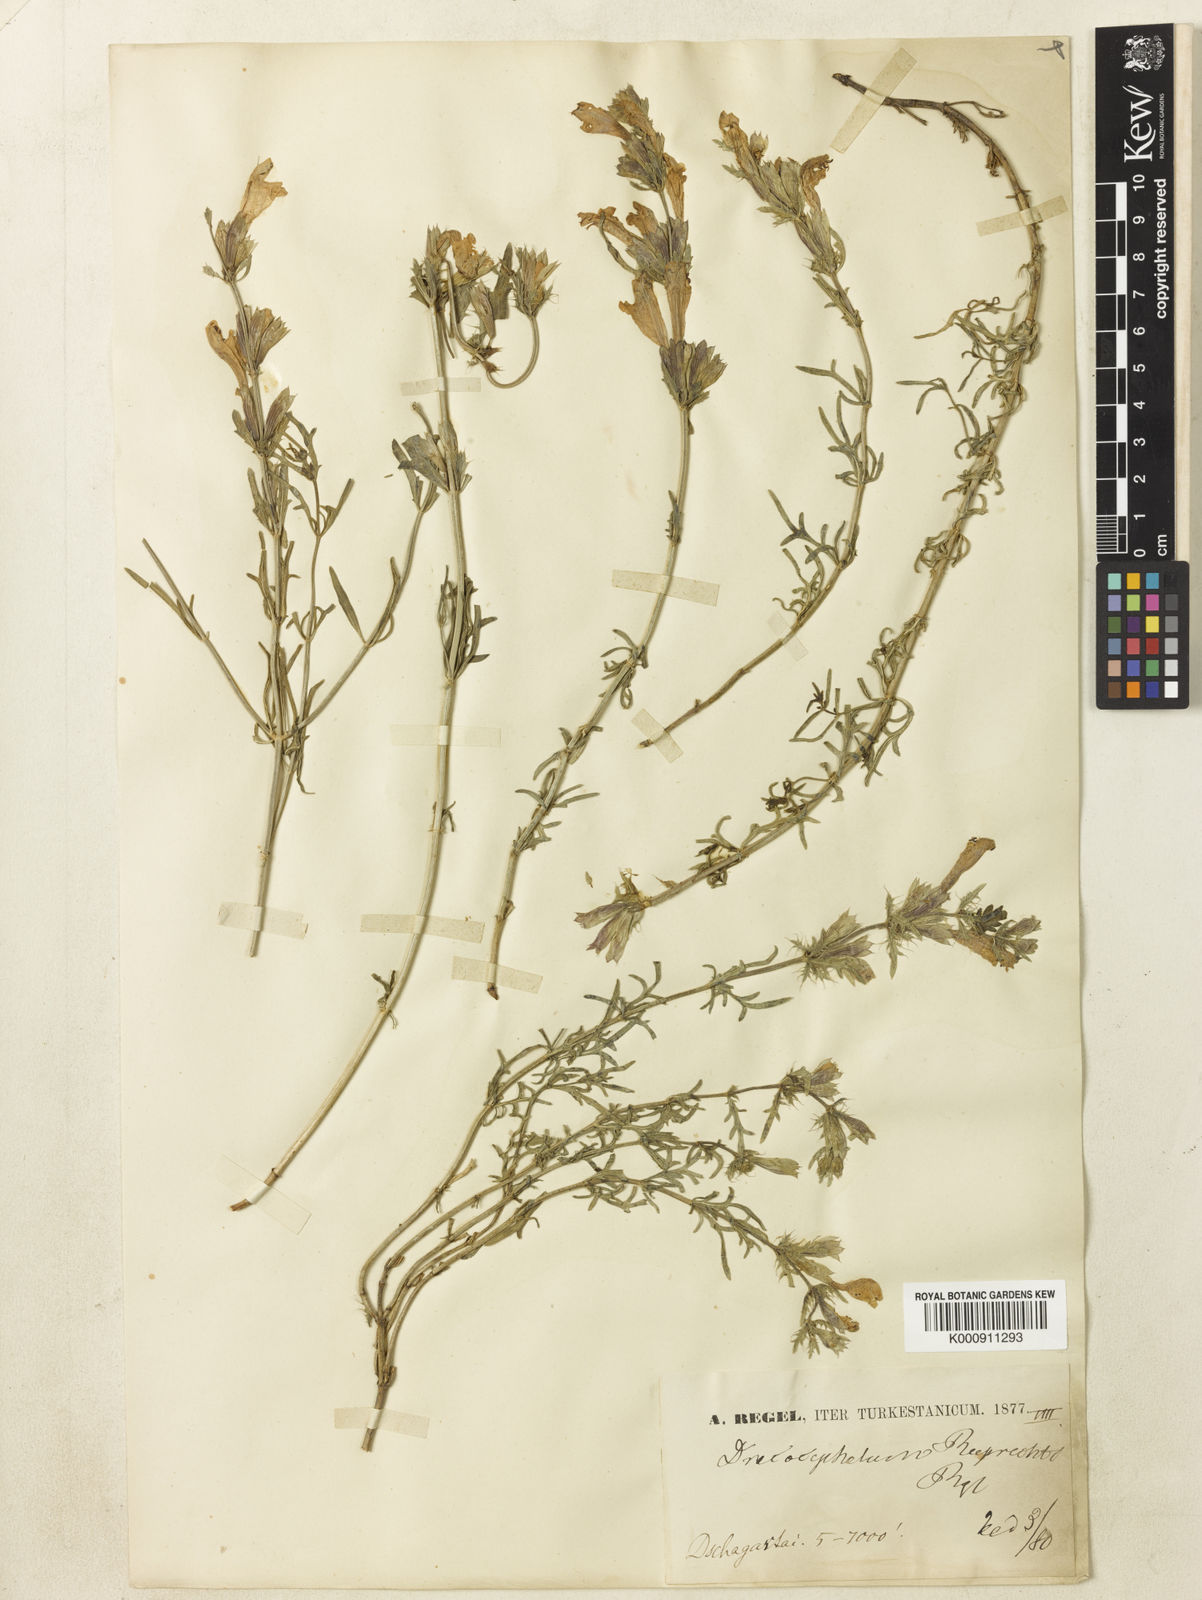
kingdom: Plantae
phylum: Tracheophyta
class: Magnoliopsida
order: Lamiales
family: Lamiaceae
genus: Dracocephalum
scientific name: Dracocephalum bipinnatum
